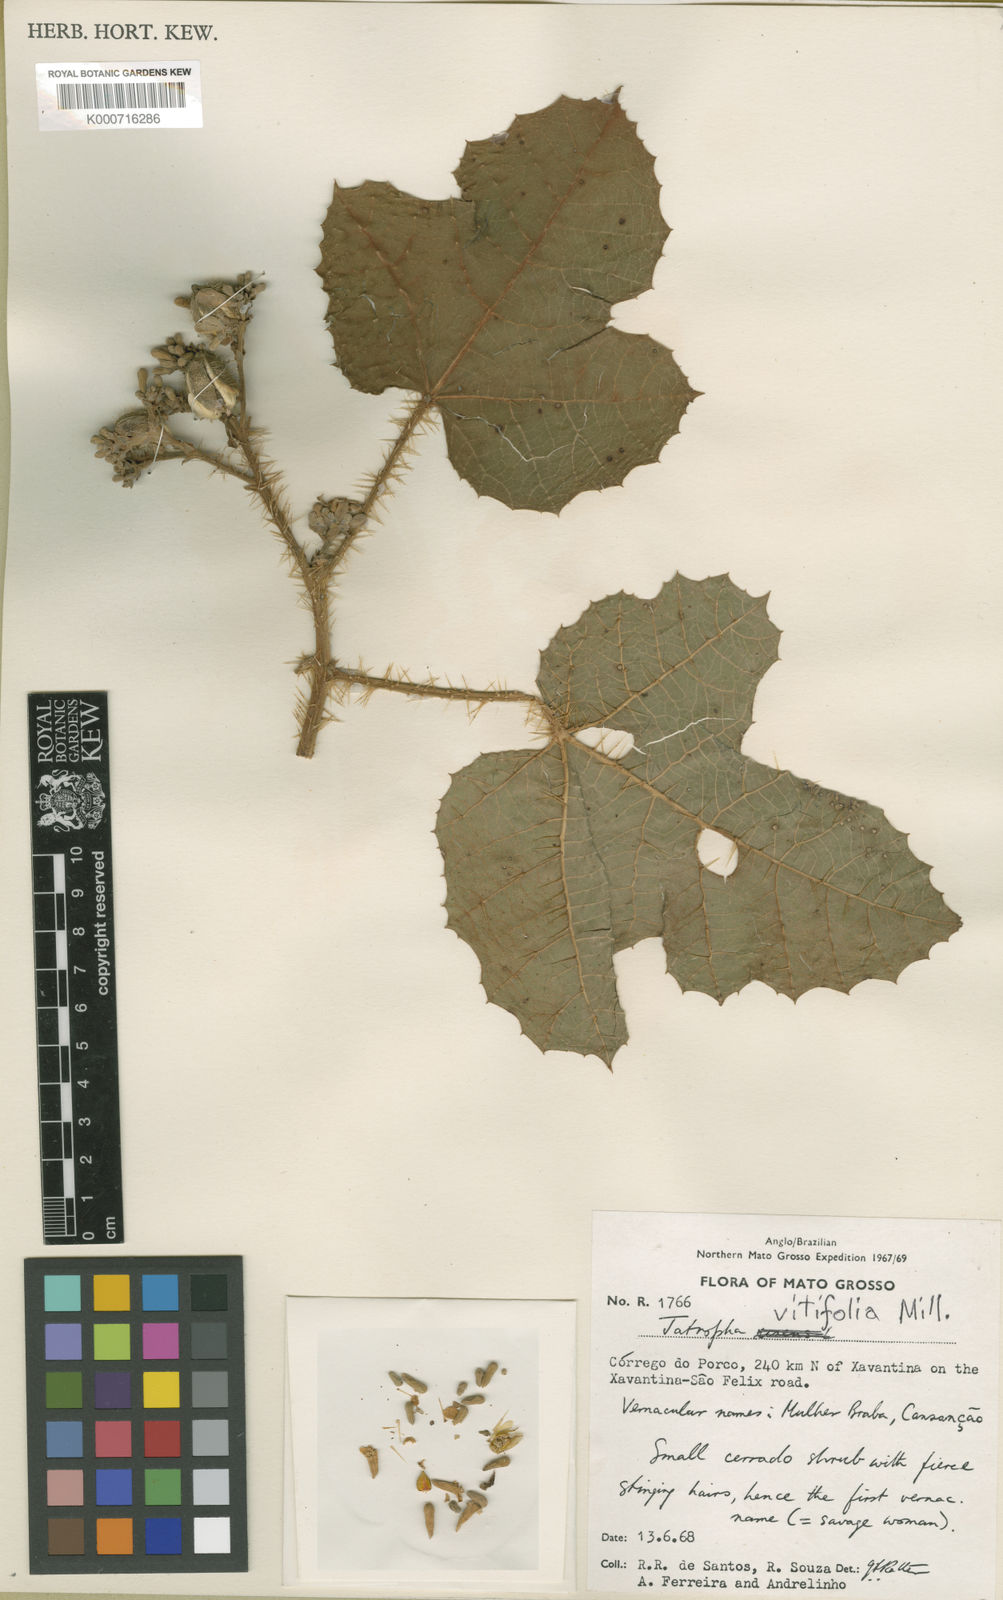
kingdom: Plantae
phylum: Tracheophyta
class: Magnoliopsida
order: Malpighiales
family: Euphorbiaceae
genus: Cnidoscolus
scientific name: Cnidoscolus vitifolius
